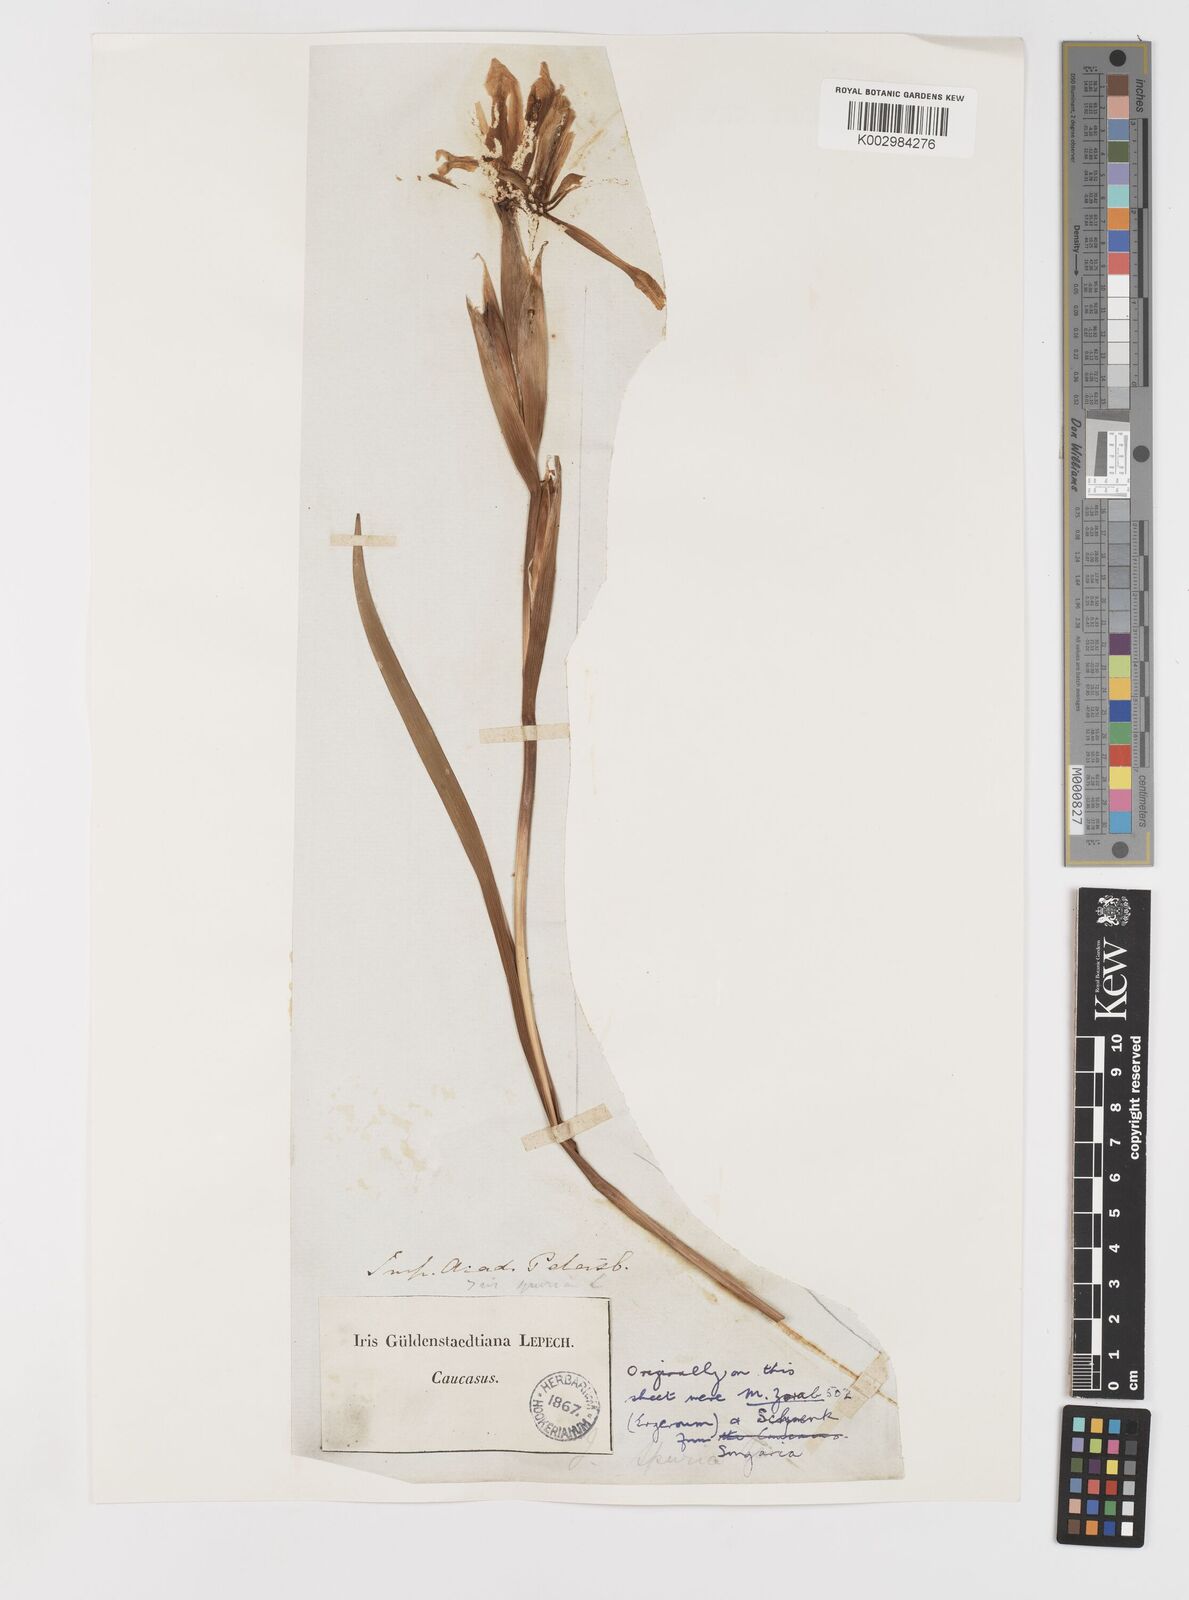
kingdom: Plantae
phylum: Tracheophyta
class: Liliopsida
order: Asparagales
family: Iridaceae
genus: Iris
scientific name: Iris spuria
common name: Blue iris
